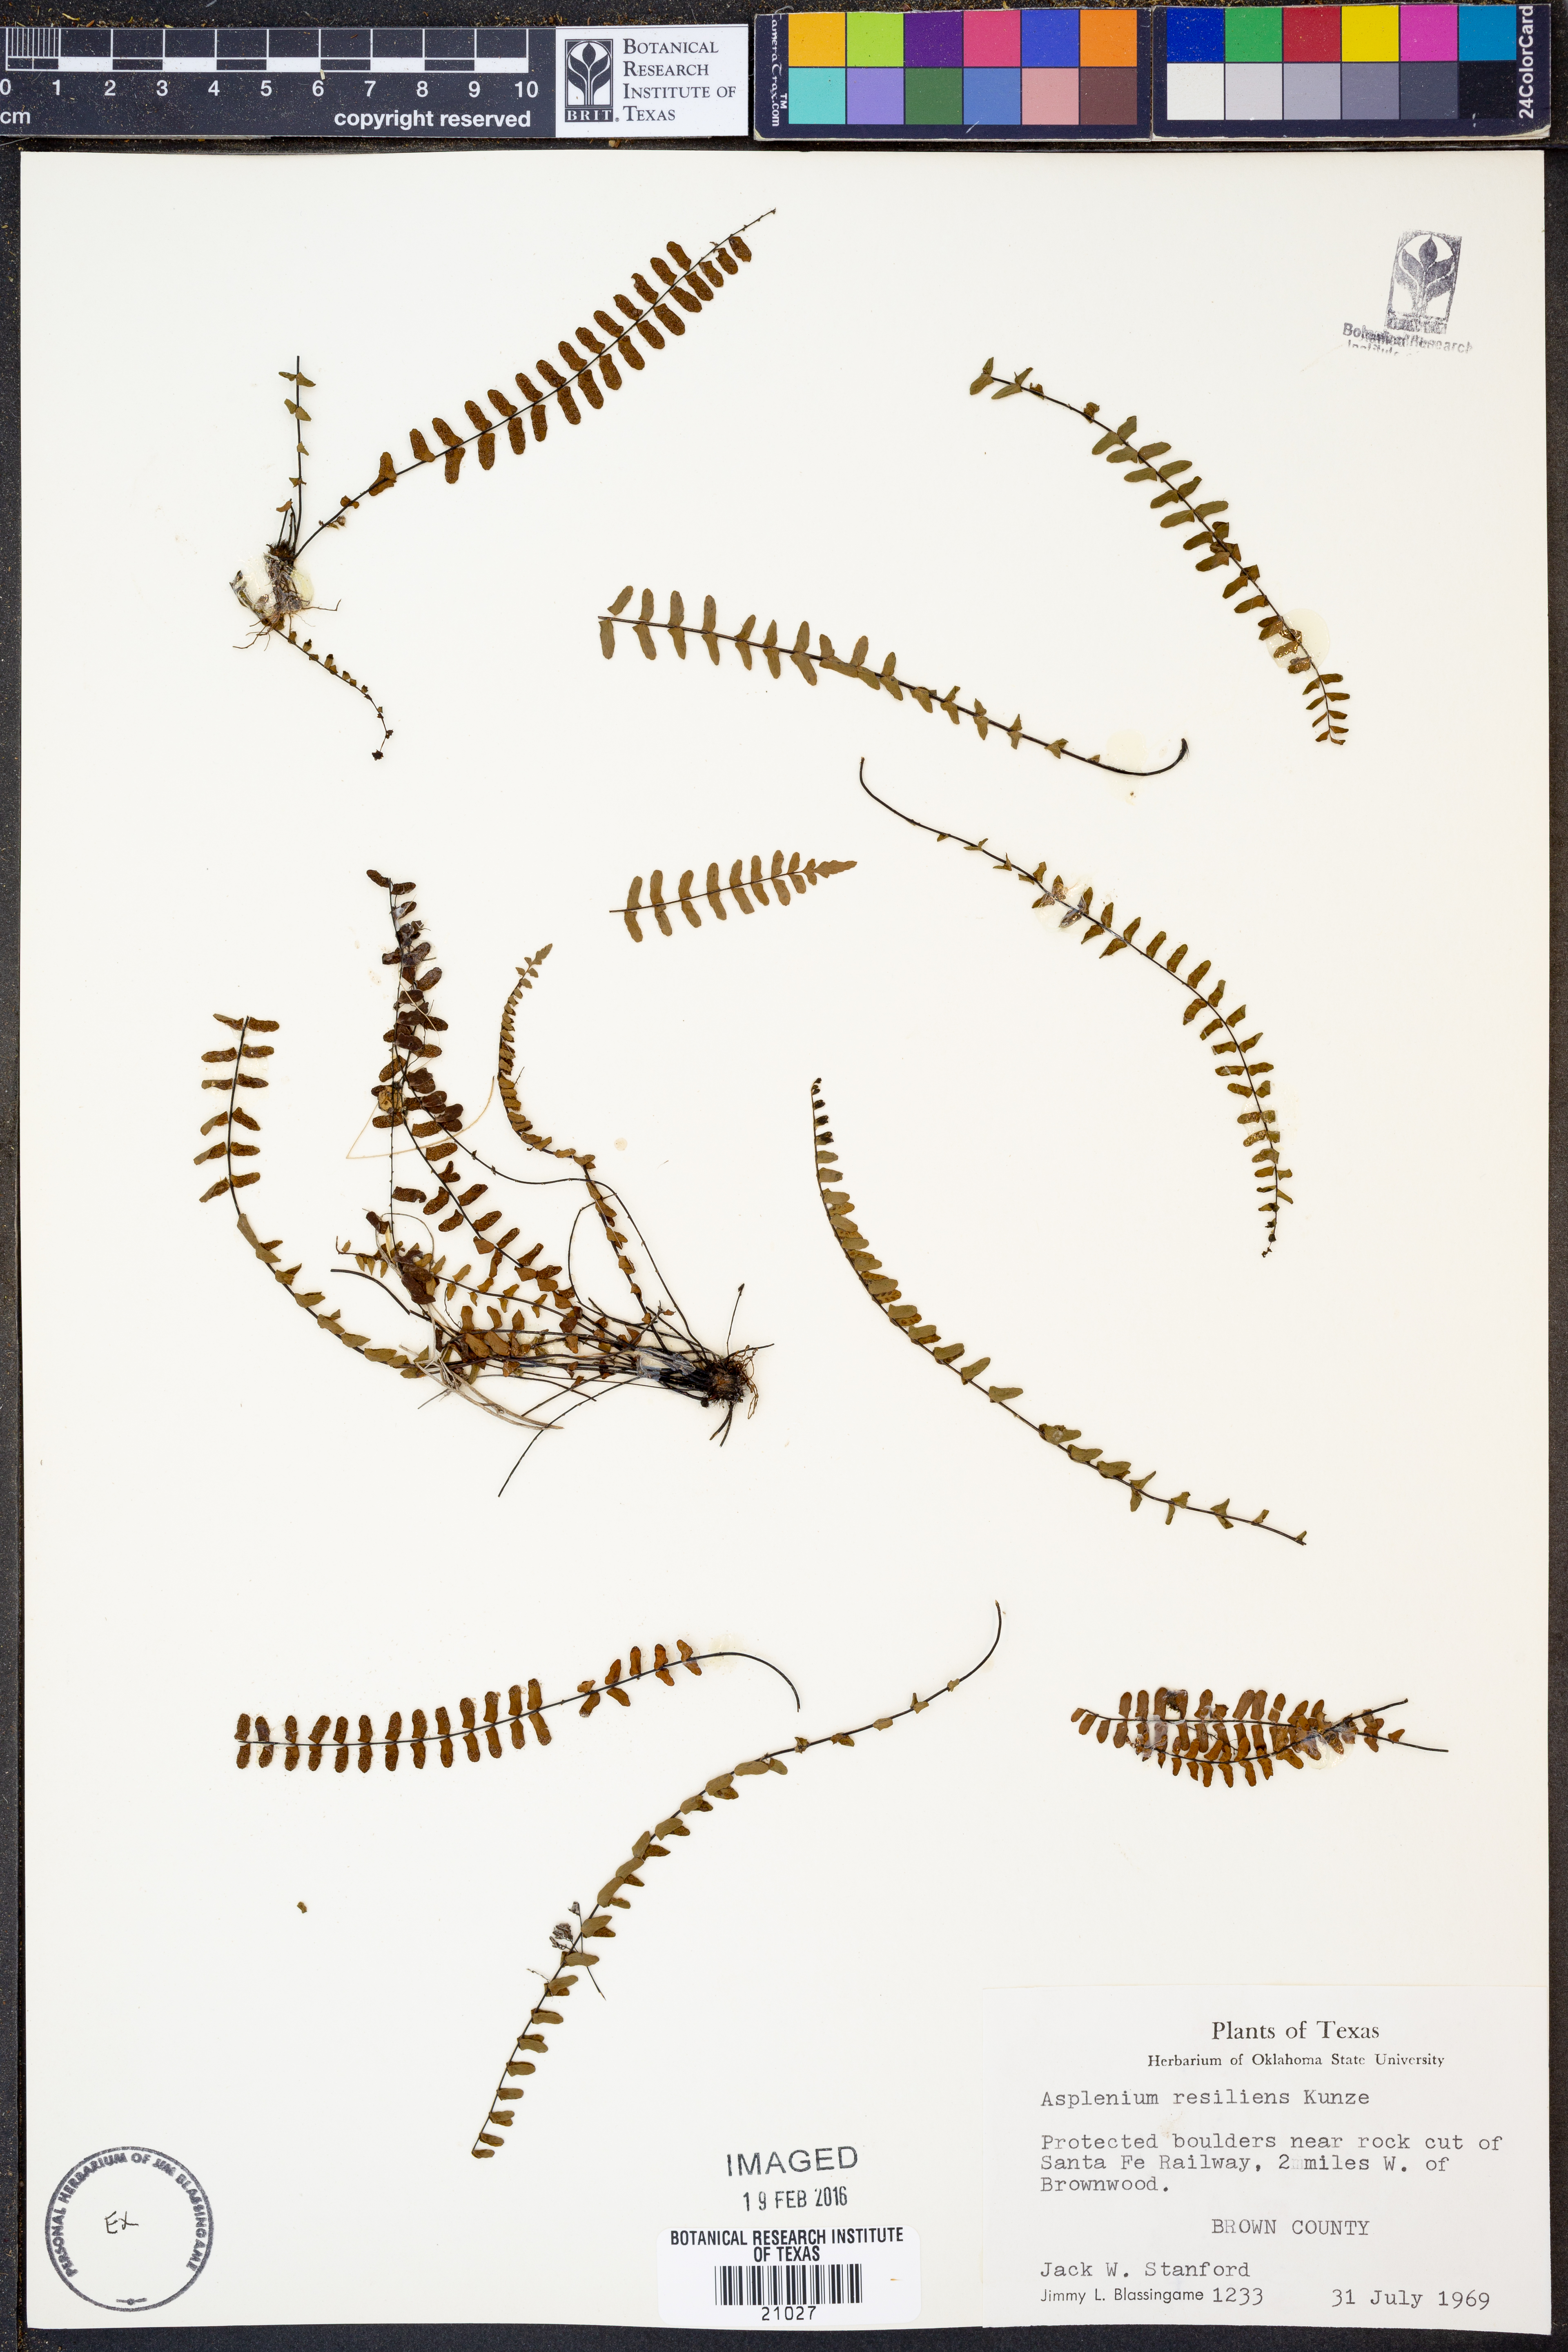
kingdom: Plantae
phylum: Tracheophyta
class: Polypodiopsida
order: Polypodiales
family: Aspleniaceae
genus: Asplenium
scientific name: Asplenium resiliens
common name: Blackstem spleenwort
